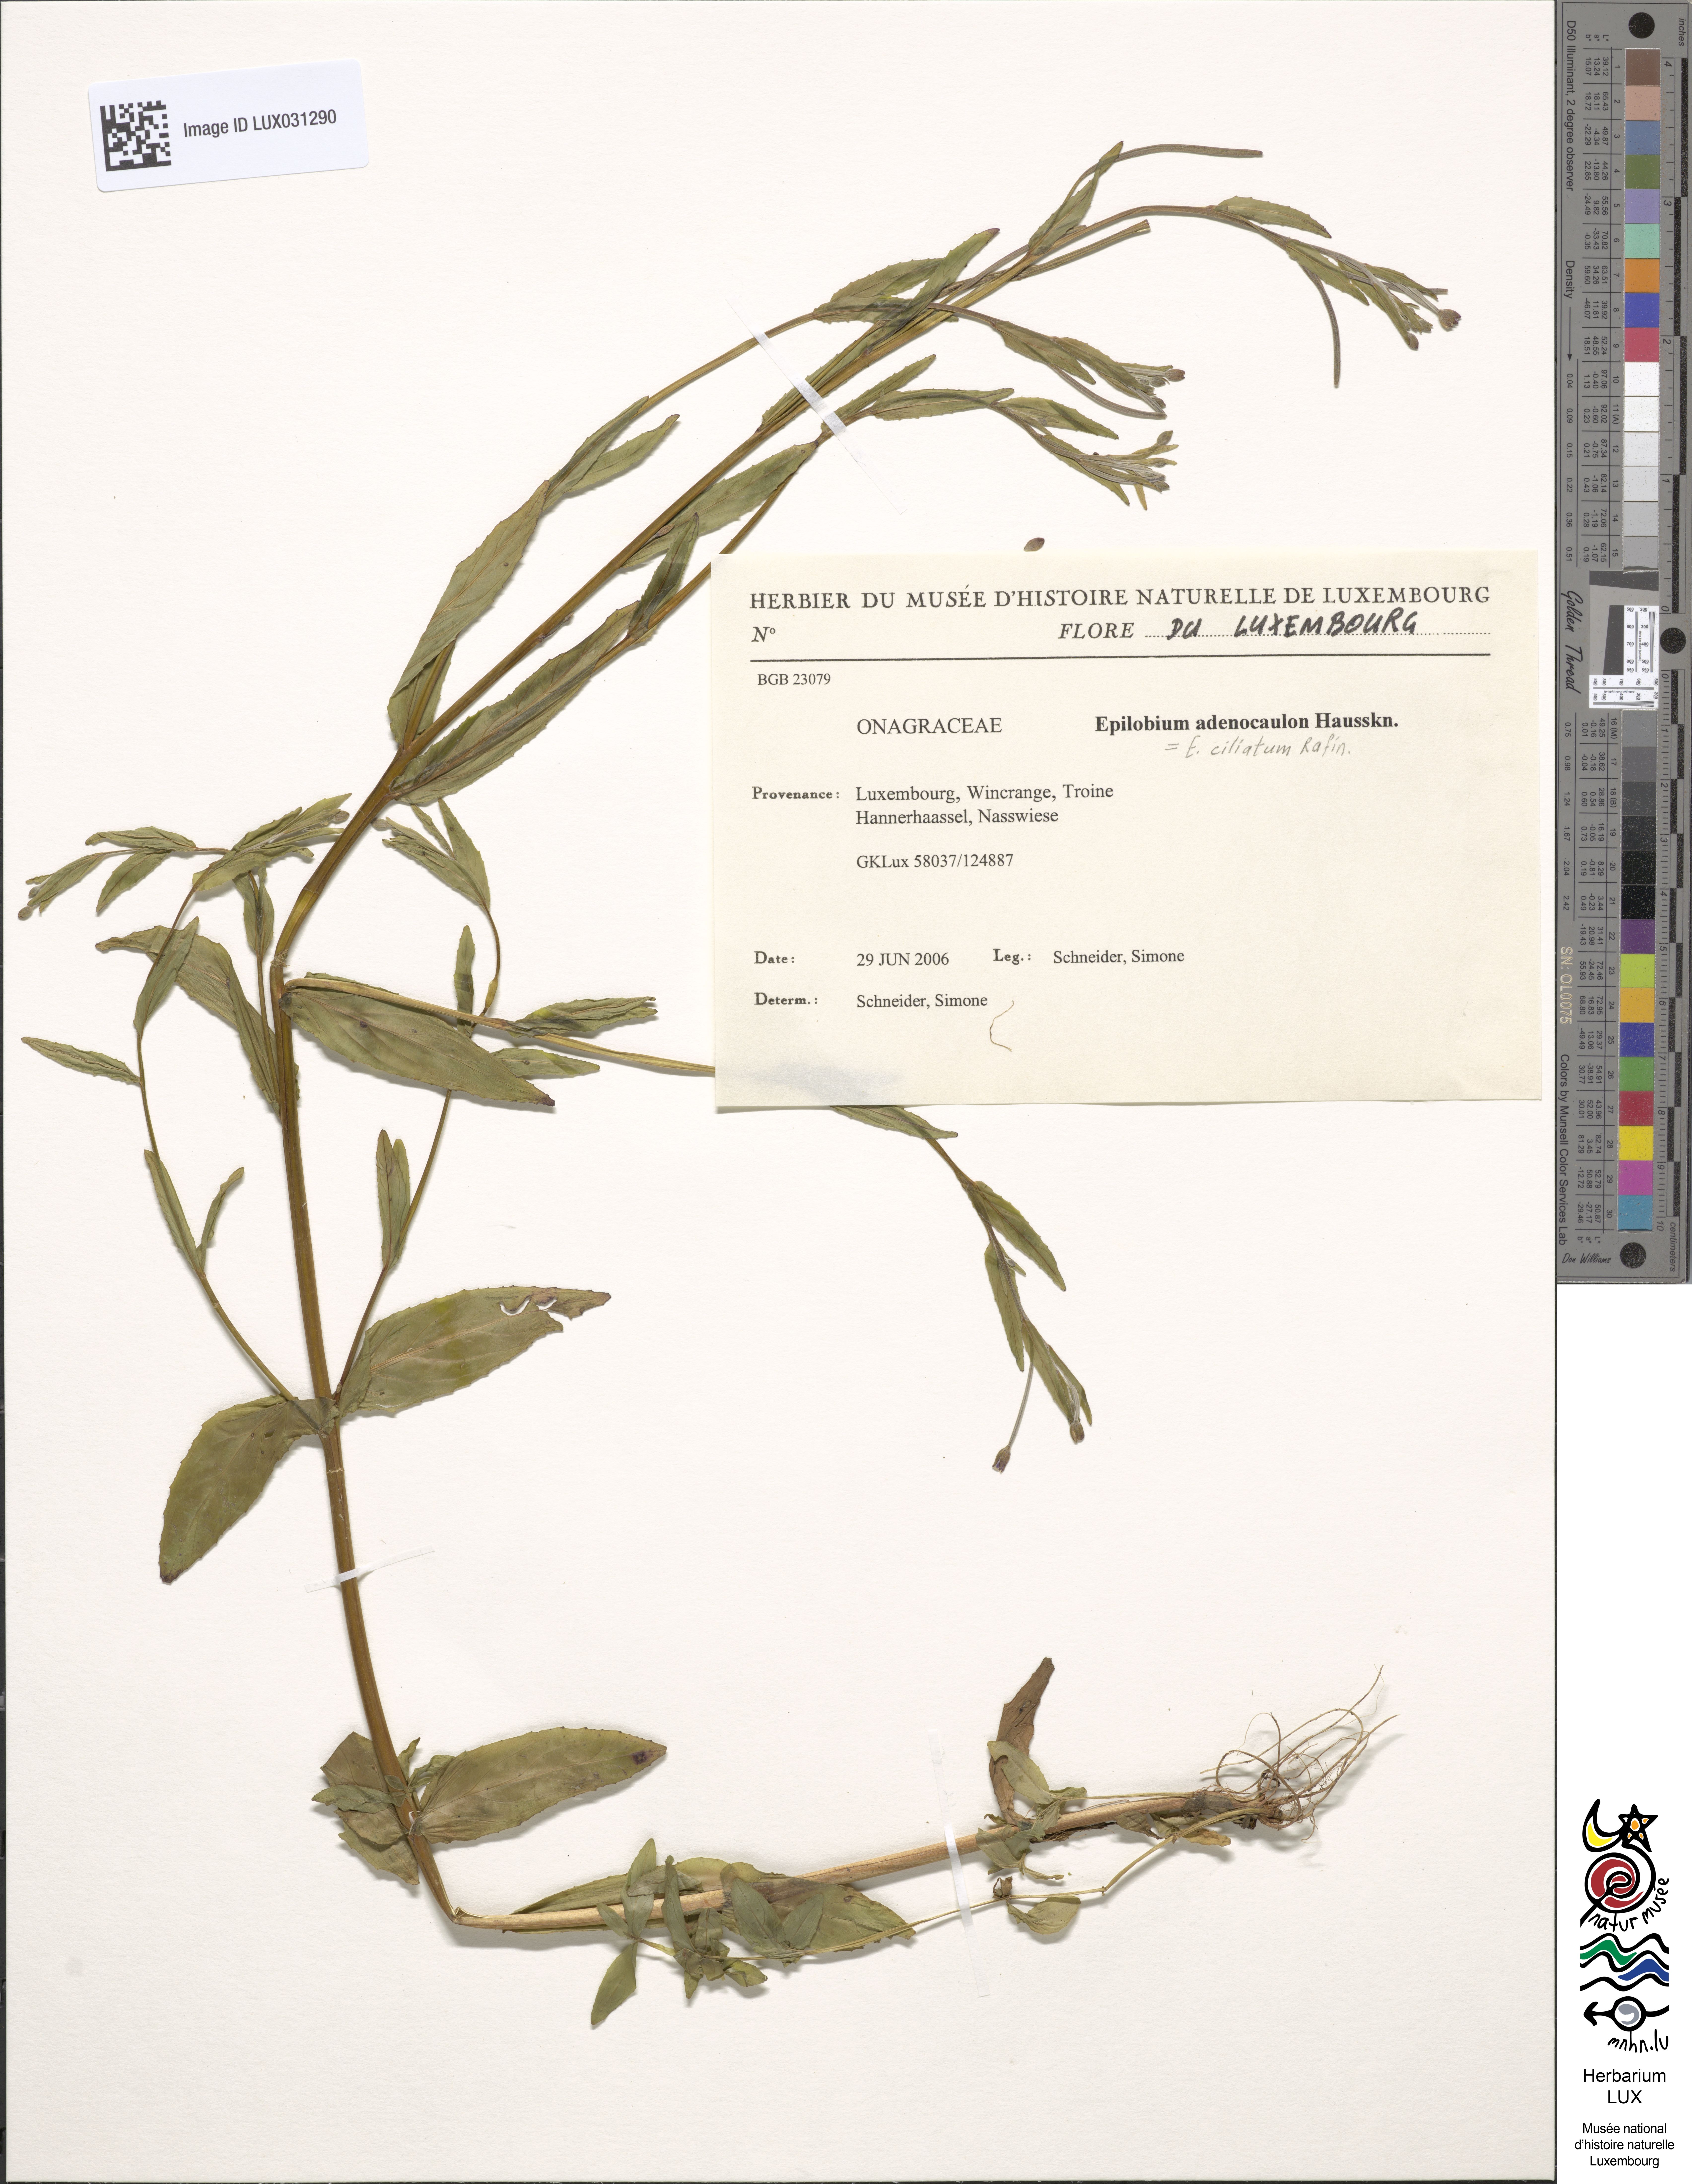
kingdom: Plantae
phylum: Tracheophyta
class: Magnoliopsida
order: Myrtales
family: Onagraceae
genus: Epilobium
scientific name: Epilobium ciliatum
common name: American willowherb
